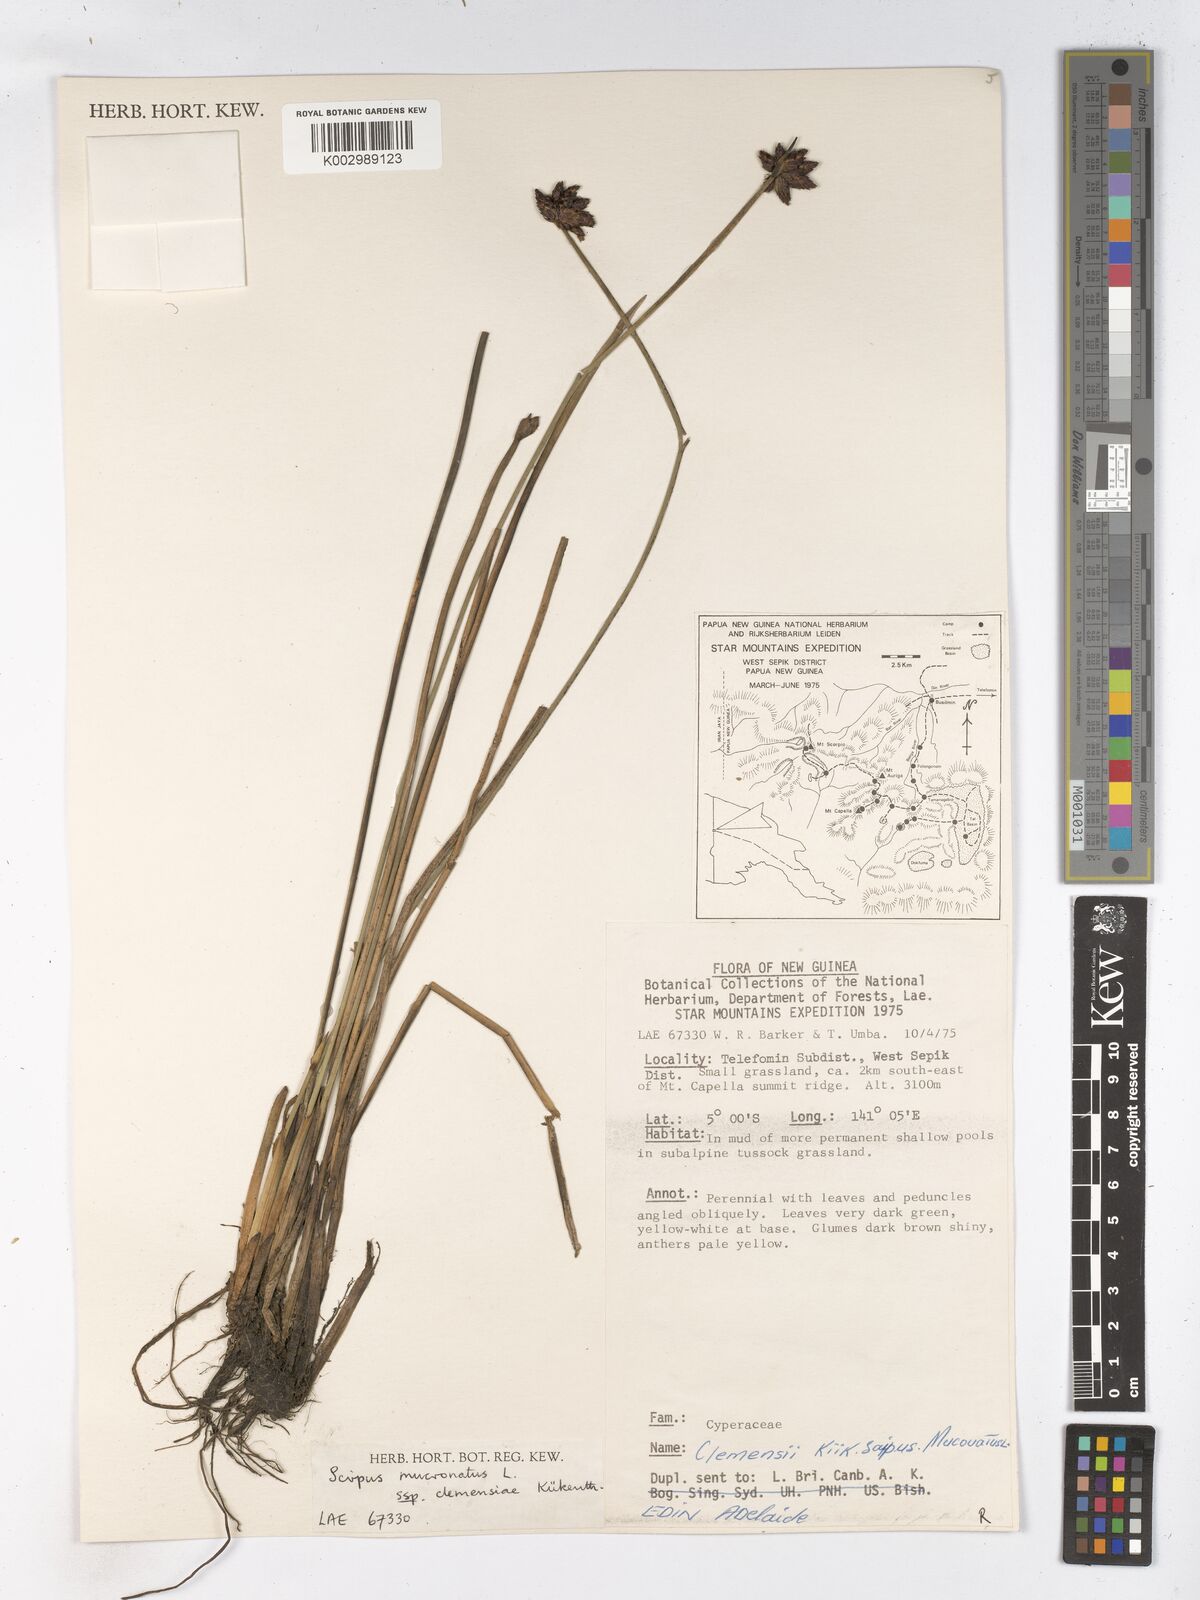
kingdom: Plantae
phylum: Tracheophyta
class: Liliopsida
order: Poales
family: Cyperaceae
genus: Schoenoplectiella
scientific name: Schoenoplectiella clemensiae
